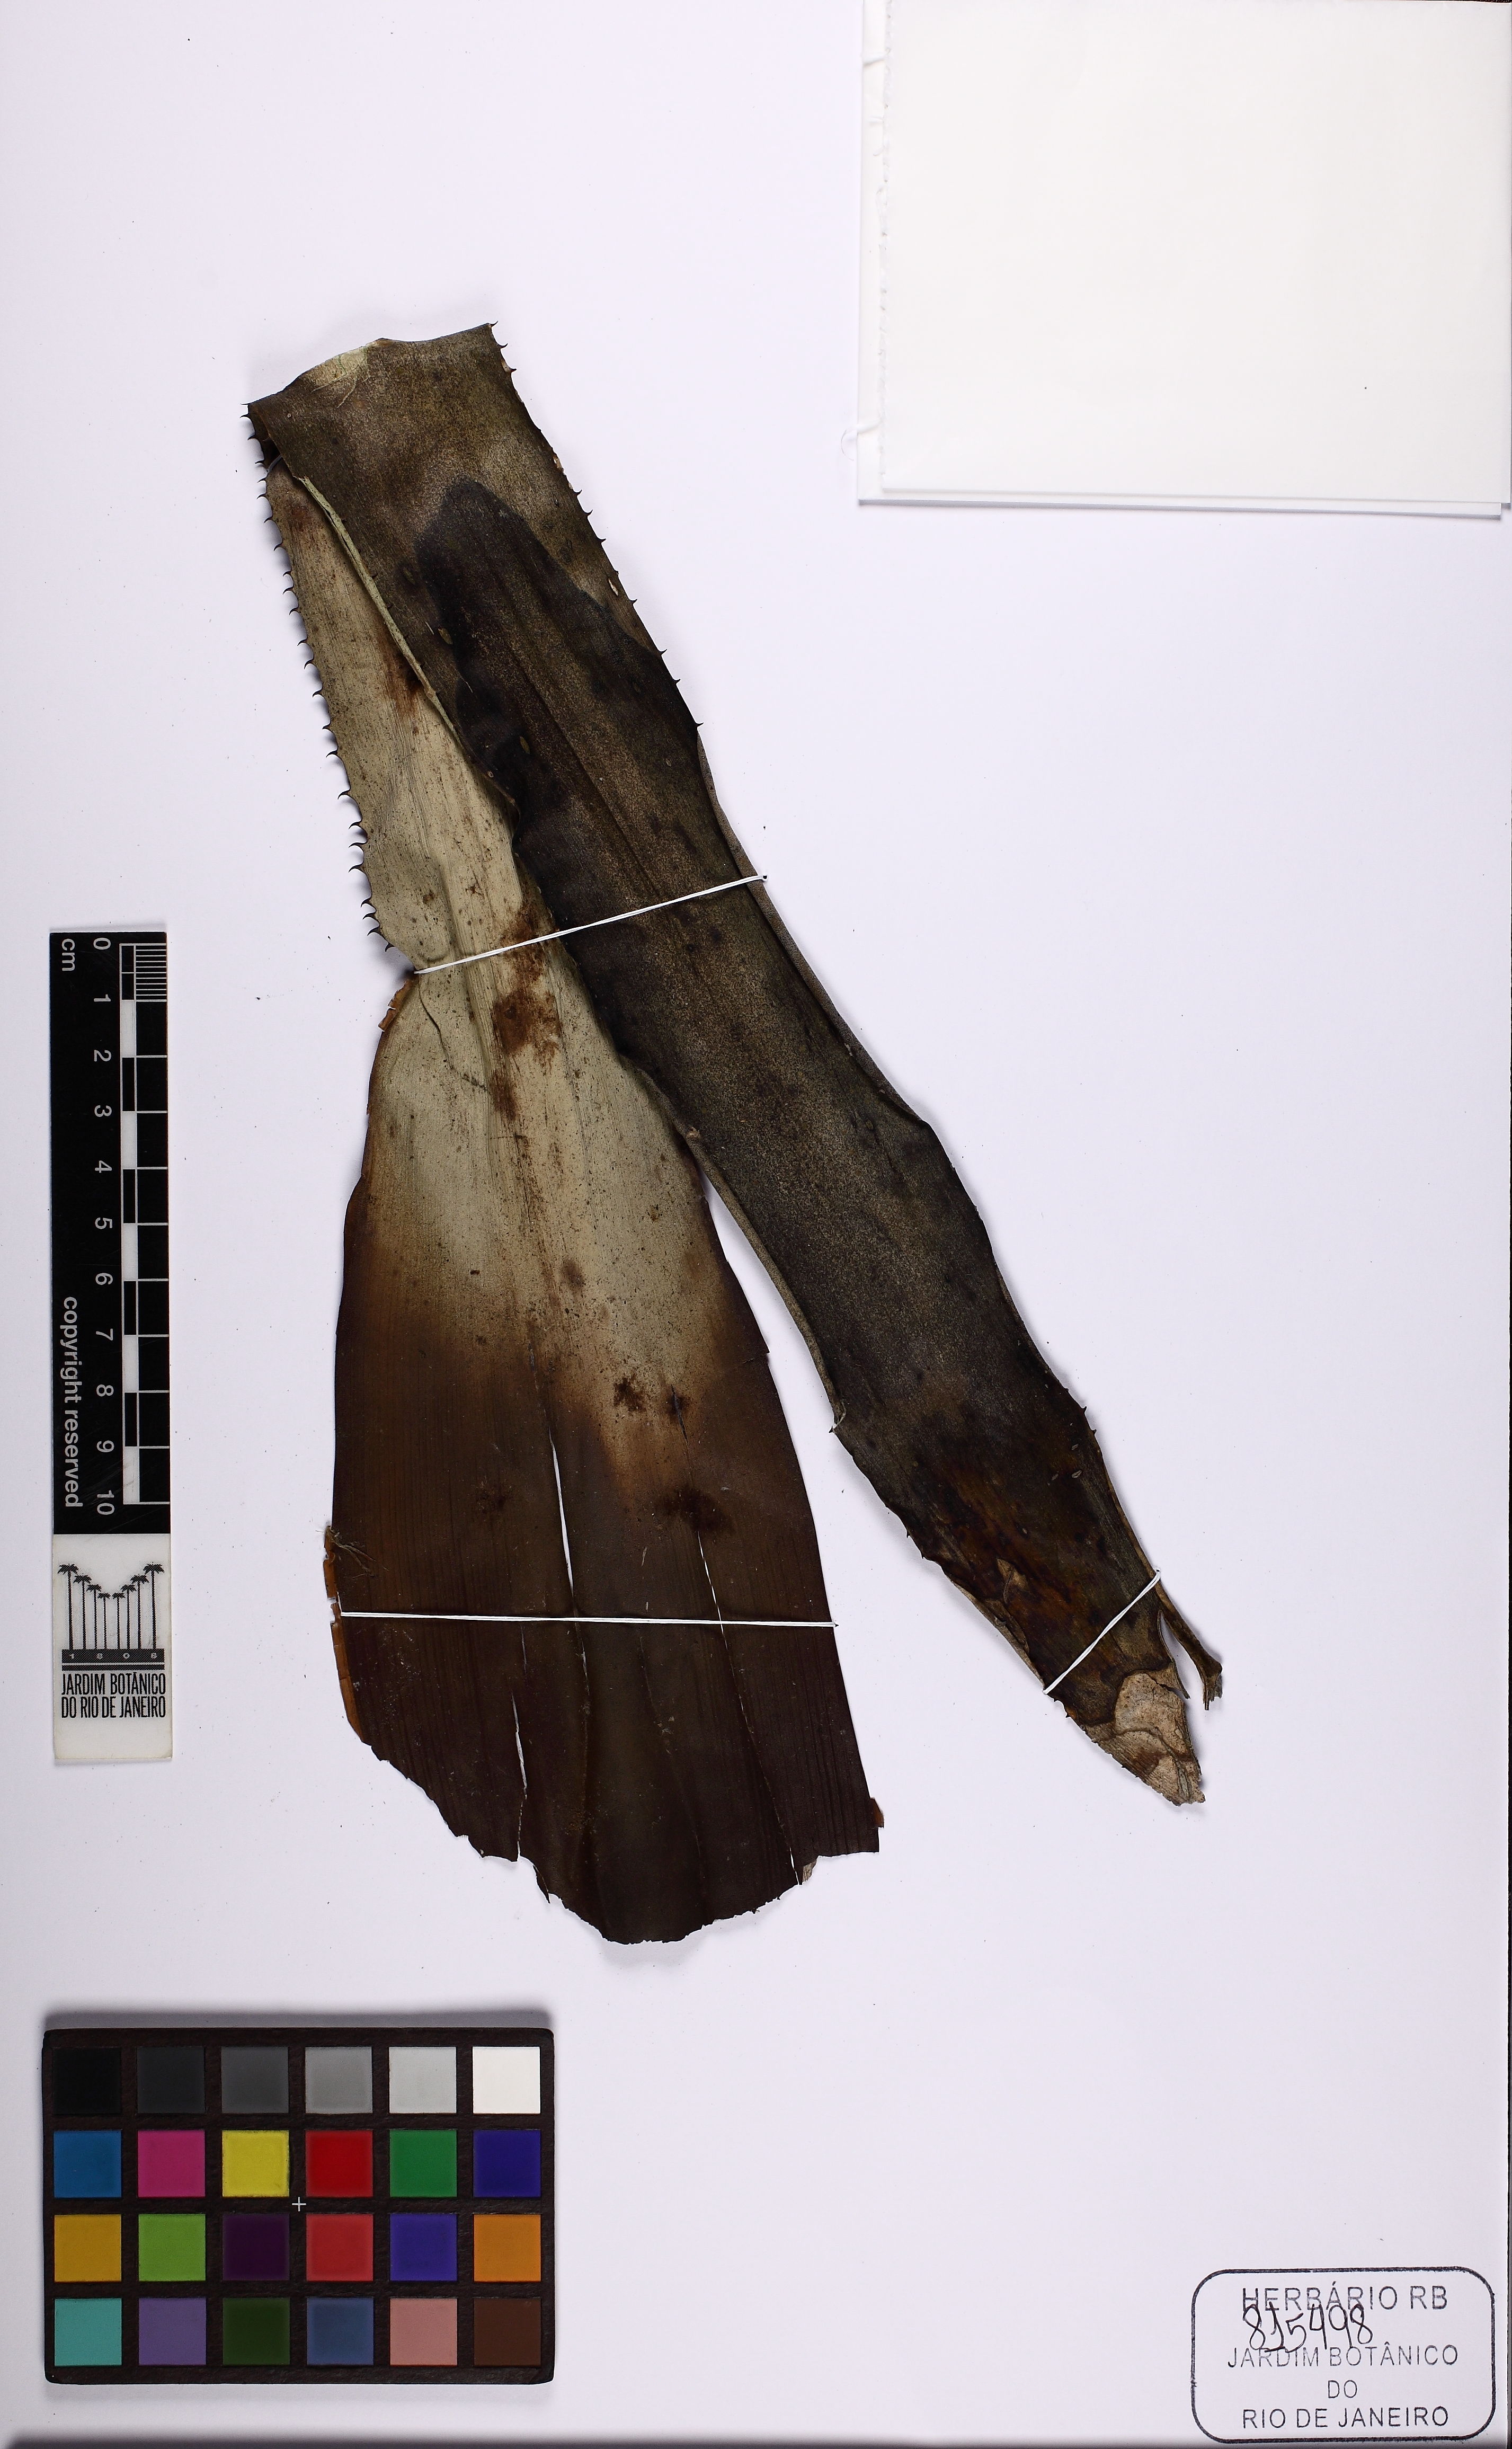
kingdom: Plantae
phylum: Tracheophyta
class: Liliopsida
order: Poales
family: Bromeliaceae
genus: Hohenbergia
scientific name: Hohenbergia brachycephala
